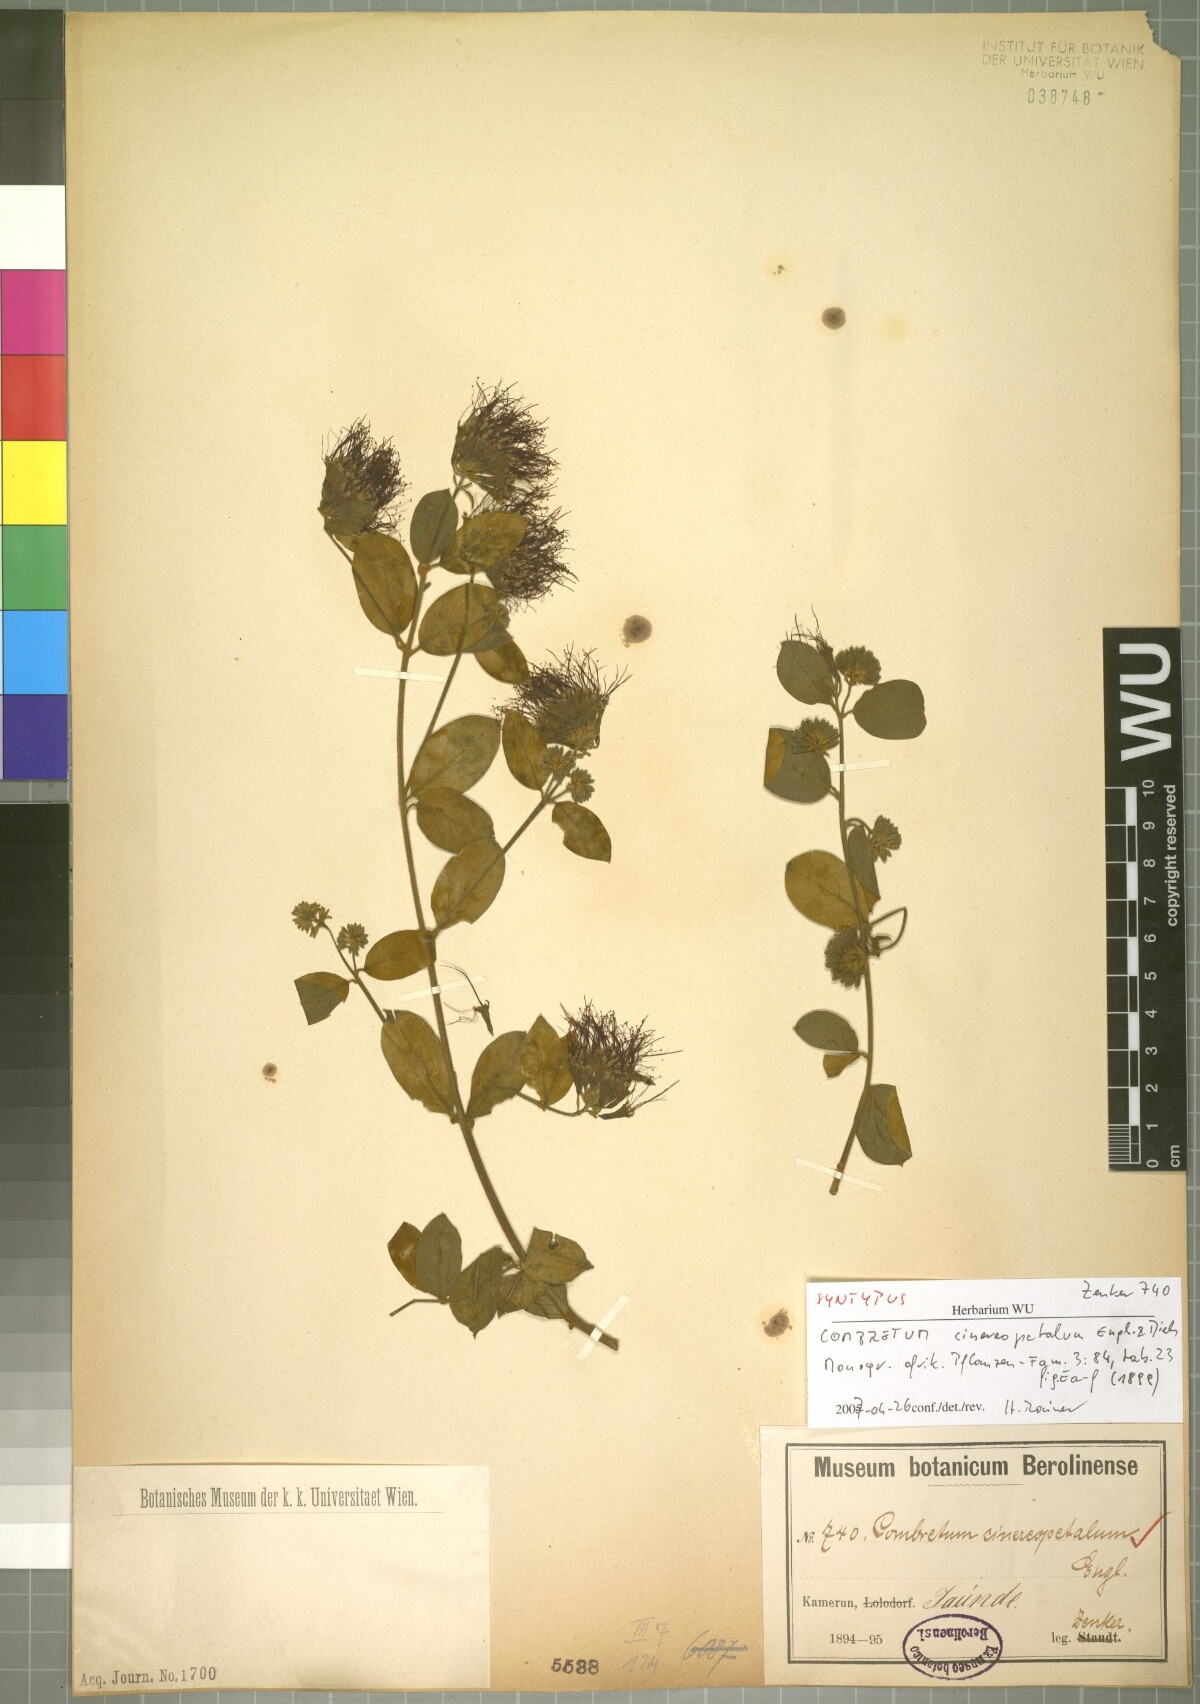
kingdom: Plantae
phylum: Tracheophyta
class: Magnoliopsida
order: Myrtales
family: Combretaceae
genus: Combretum
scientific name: Combretum cinereopetalum
